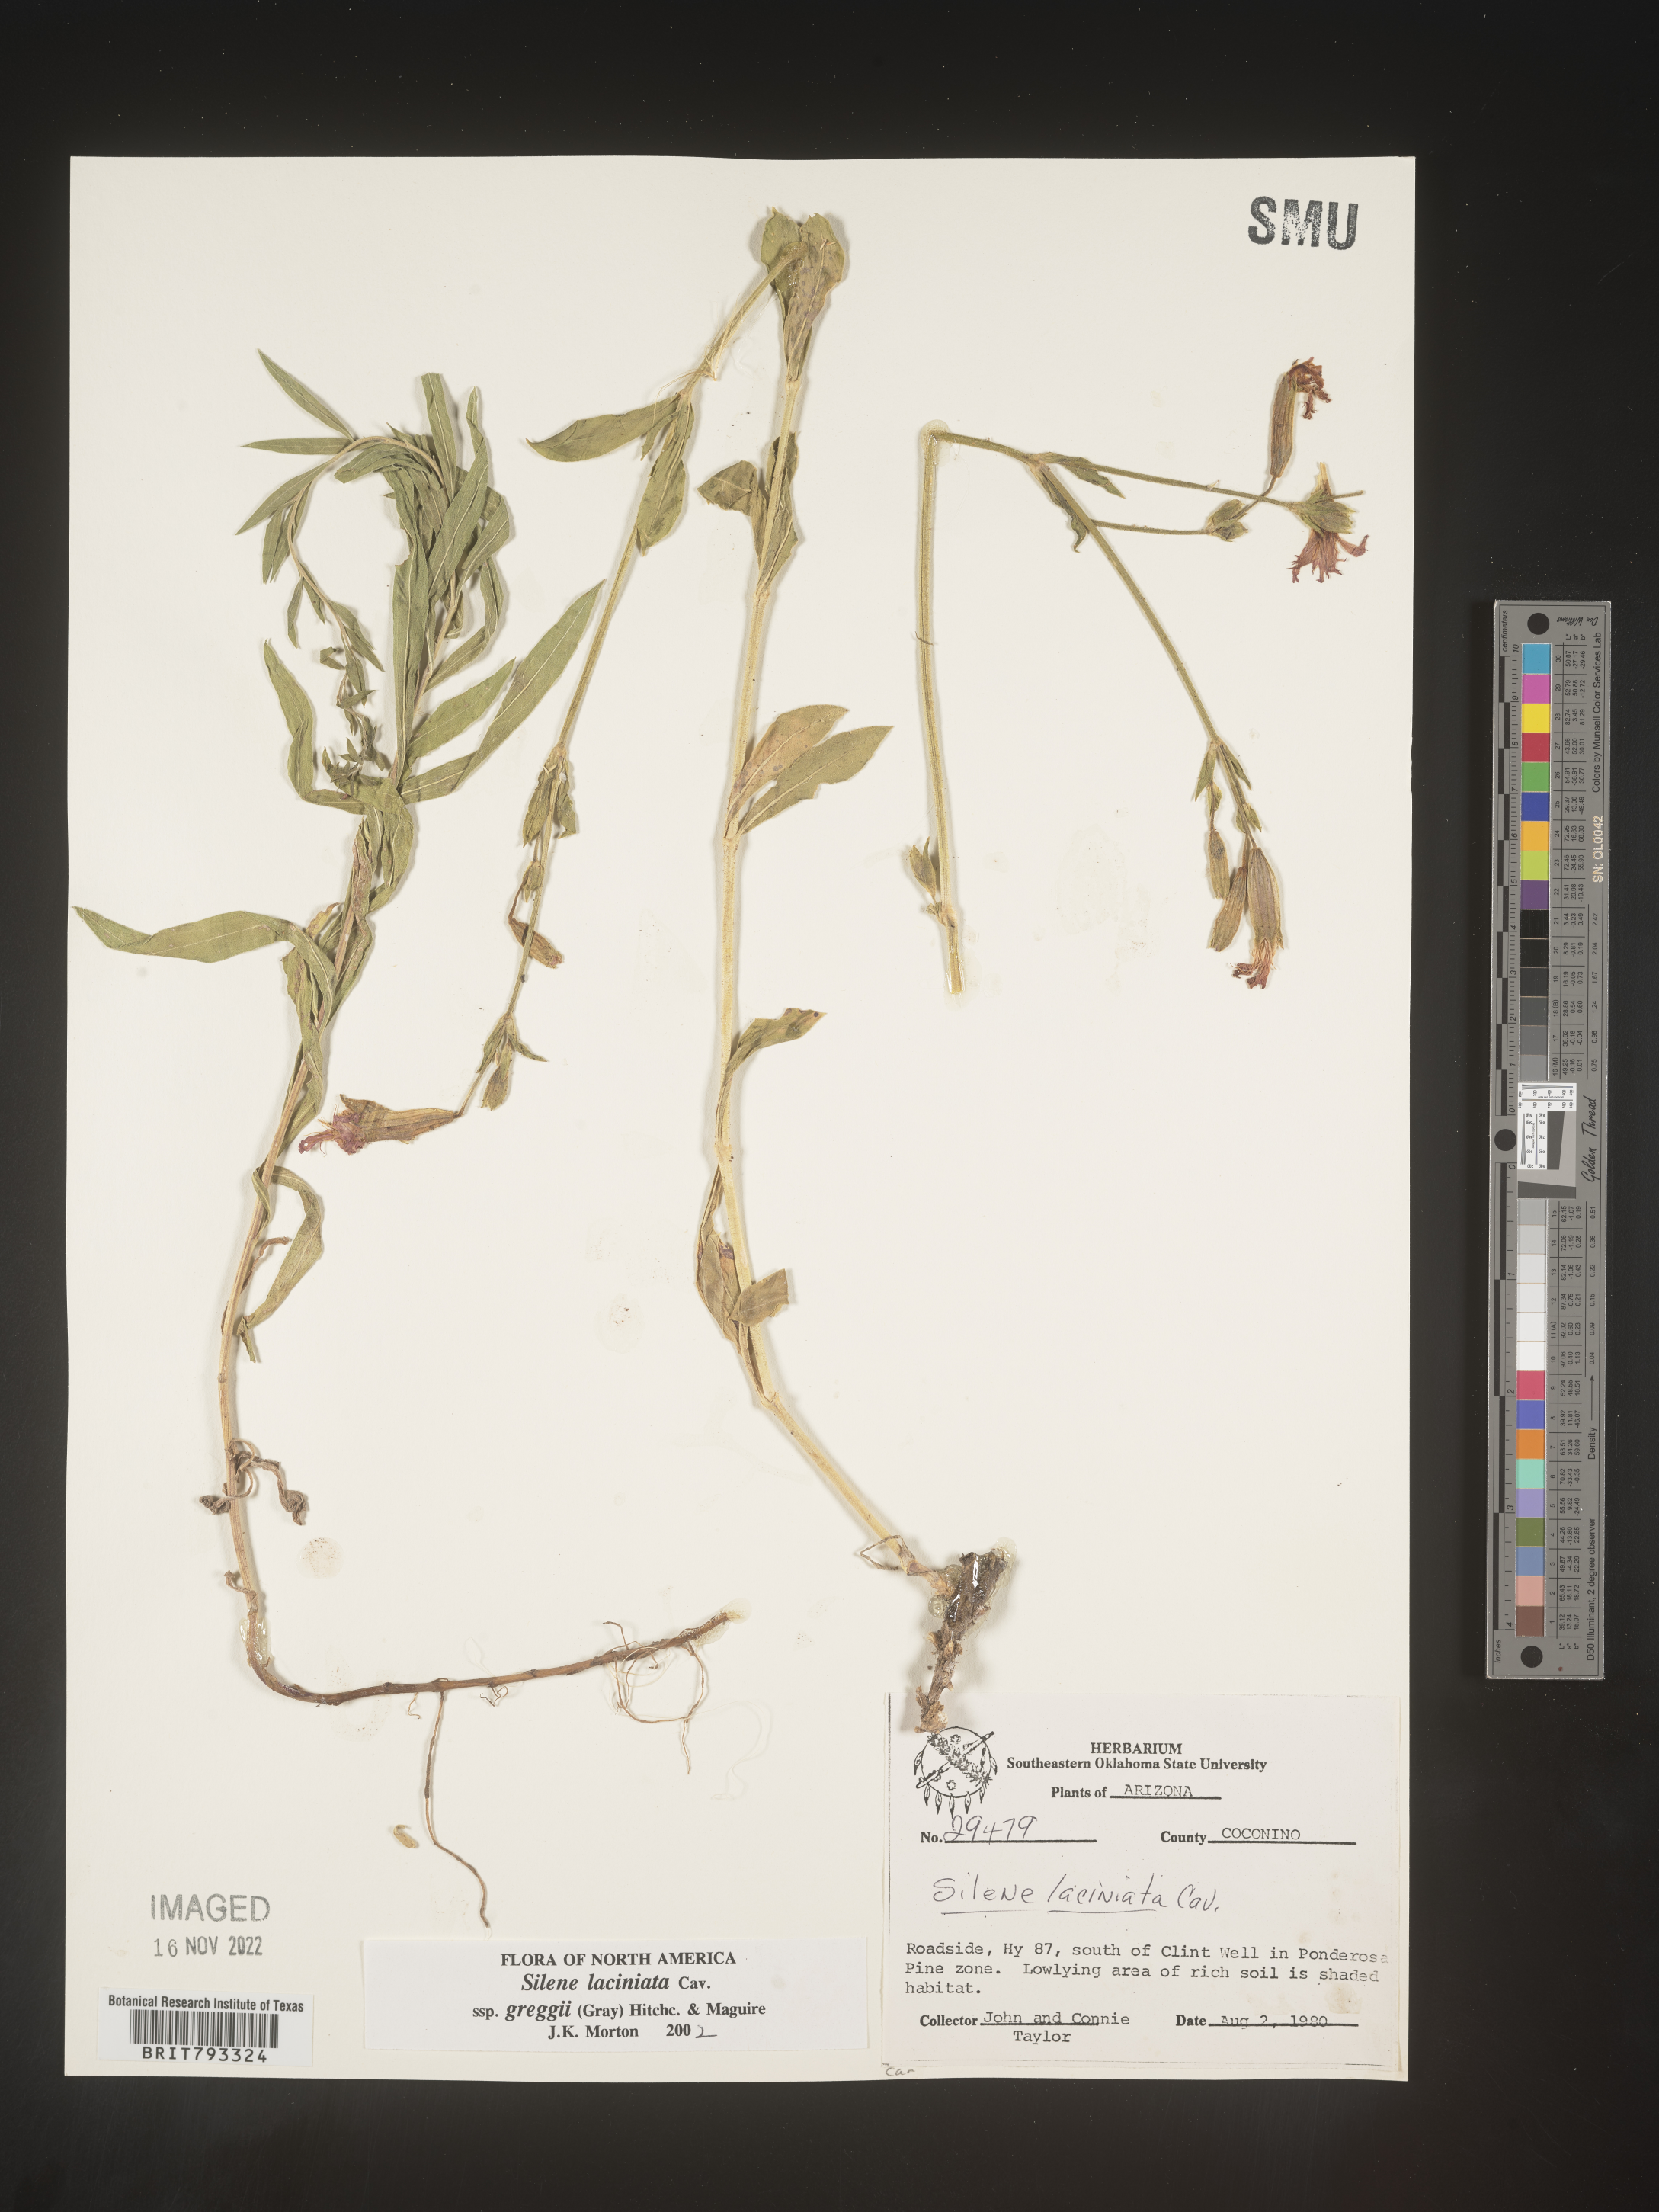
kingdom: Plantae
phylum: Tracheophyta
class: Magnoliopsida
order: Caryophyllales
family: Caryophyllaceae
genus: Silene
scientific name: Silene laciniata
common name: Indian-pink
